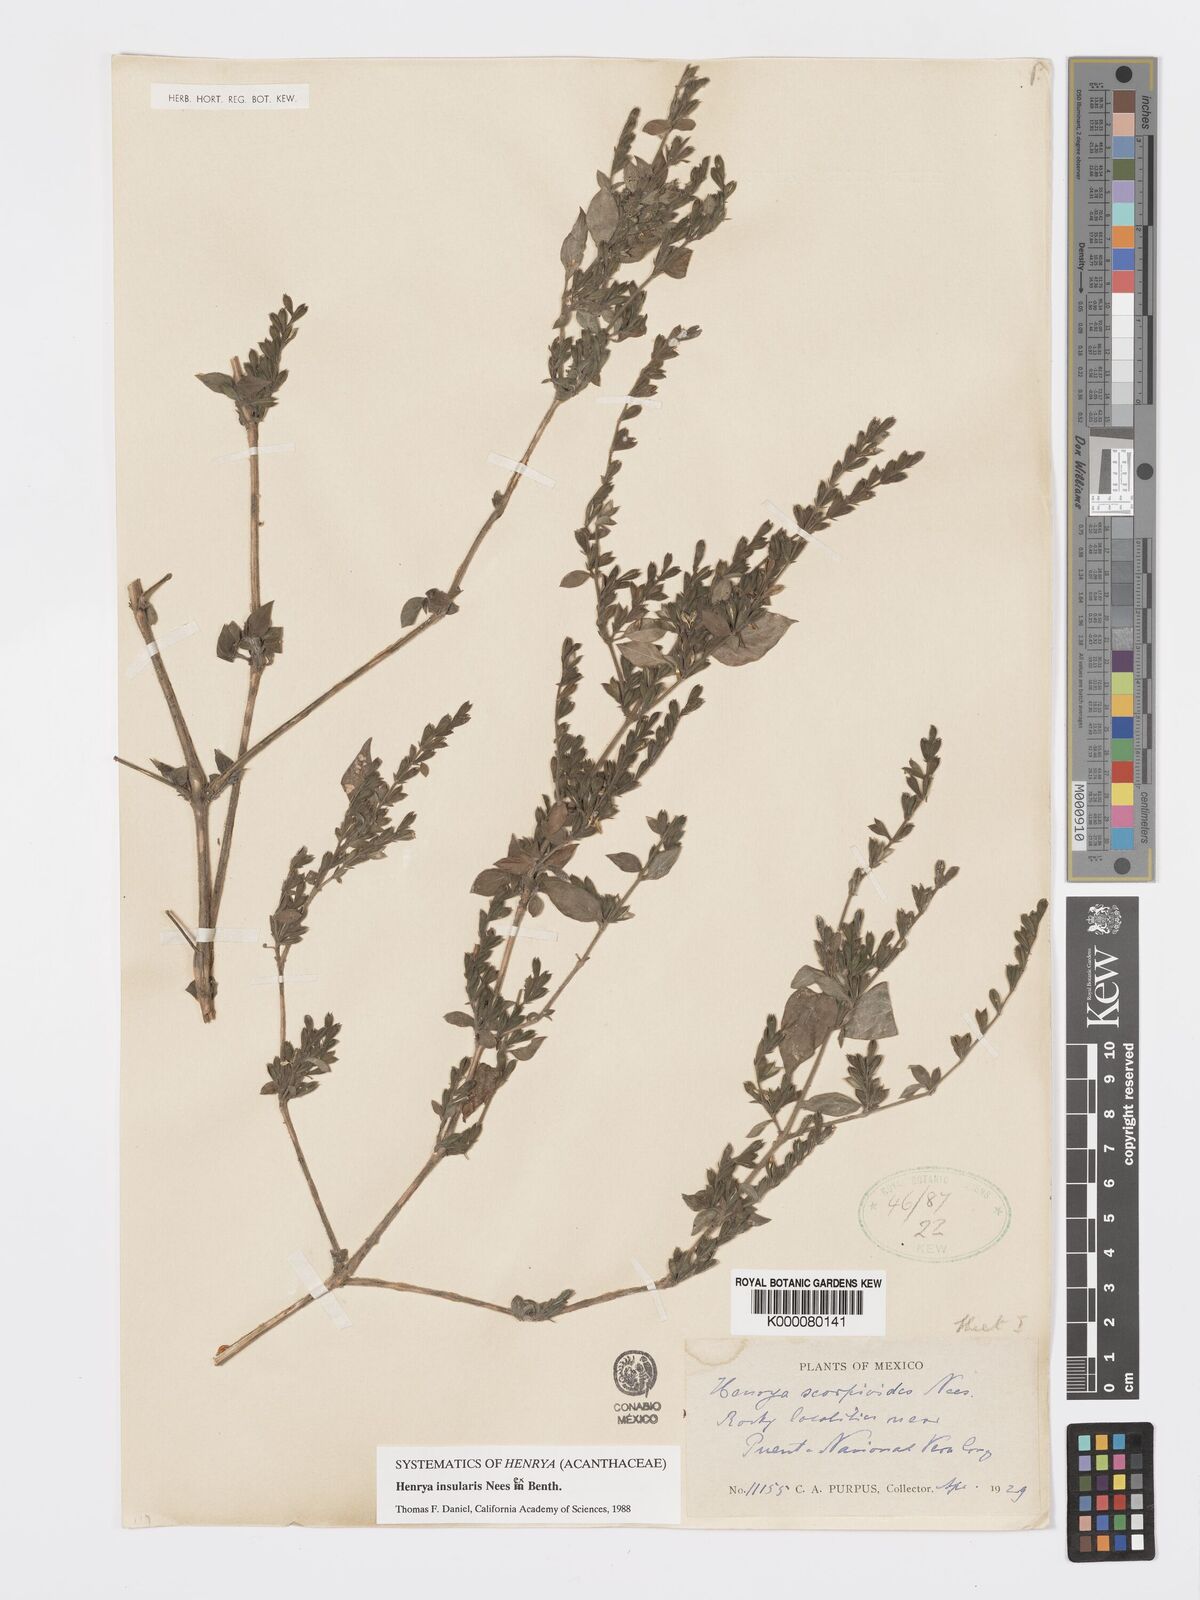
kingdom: Plantae
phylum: Tracheophyta
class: Magnoliopsida
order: Lamiales
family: Acanthaceae
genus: Henrya
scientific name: Henrya
